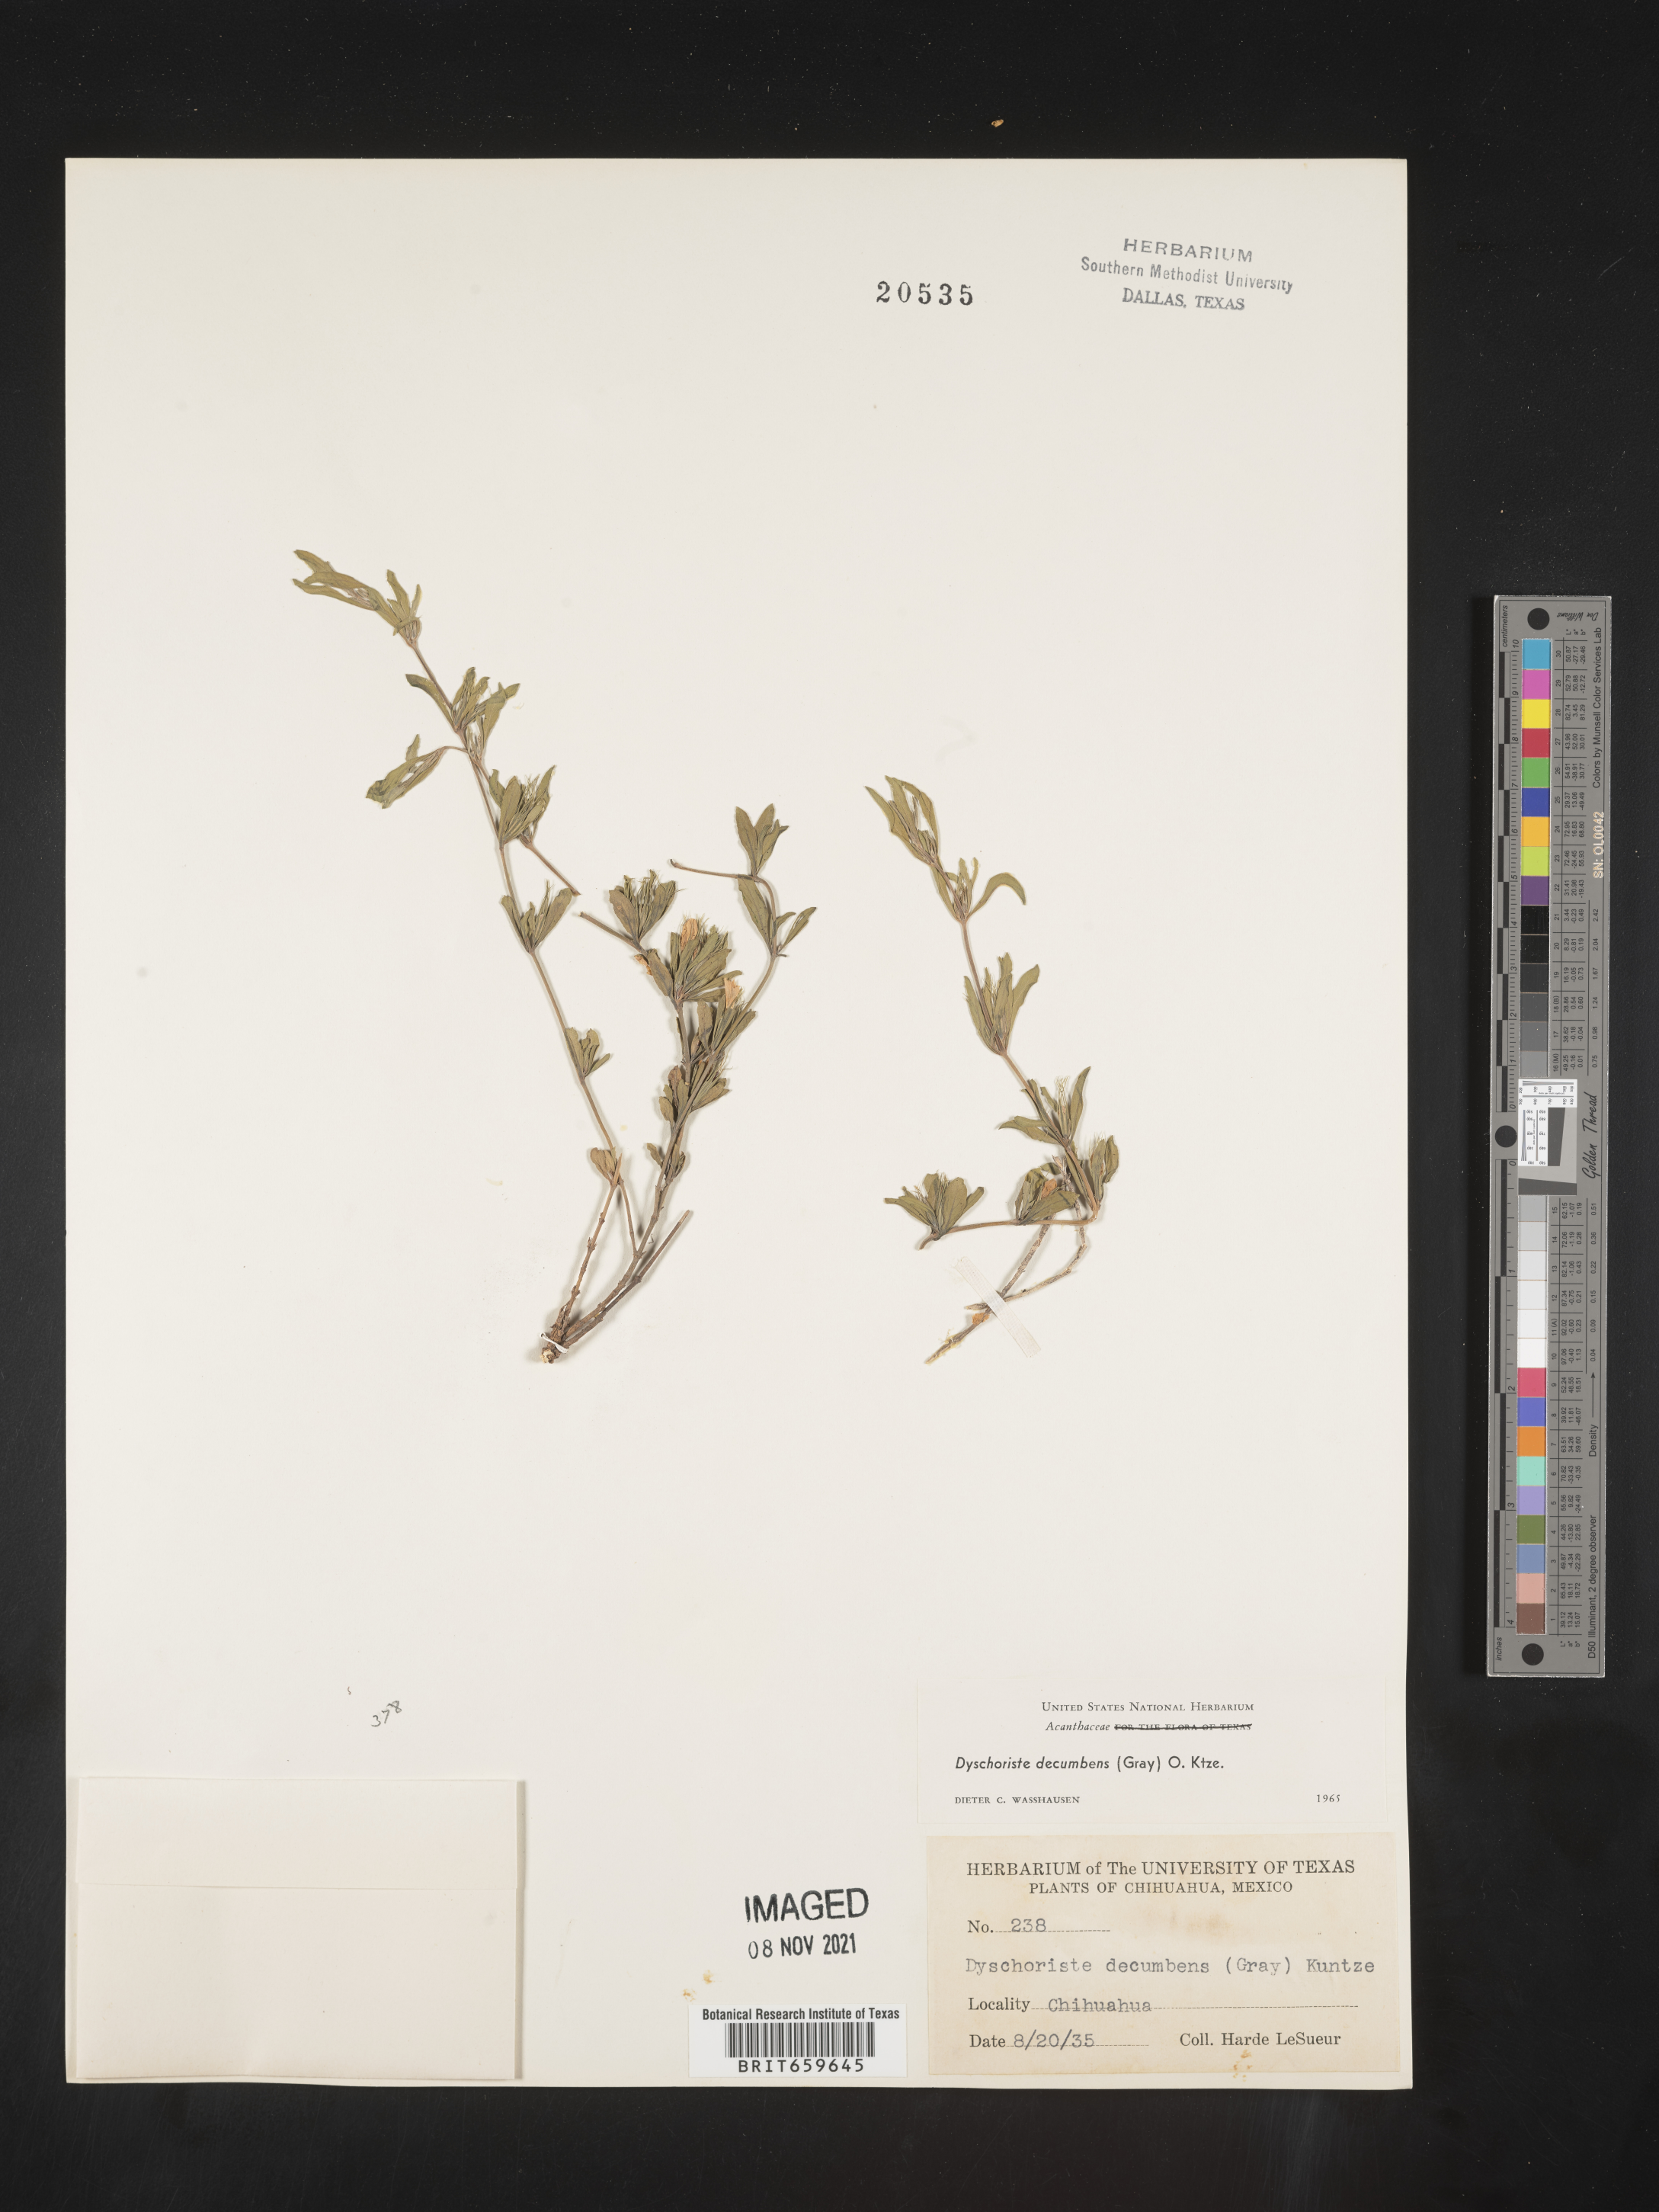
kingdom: Plantae
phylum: Tracheophyta
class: Magnoliopsida
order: Lamiales
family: Acanthaceae
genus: Dyschoriste
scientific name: Dyschoriste
